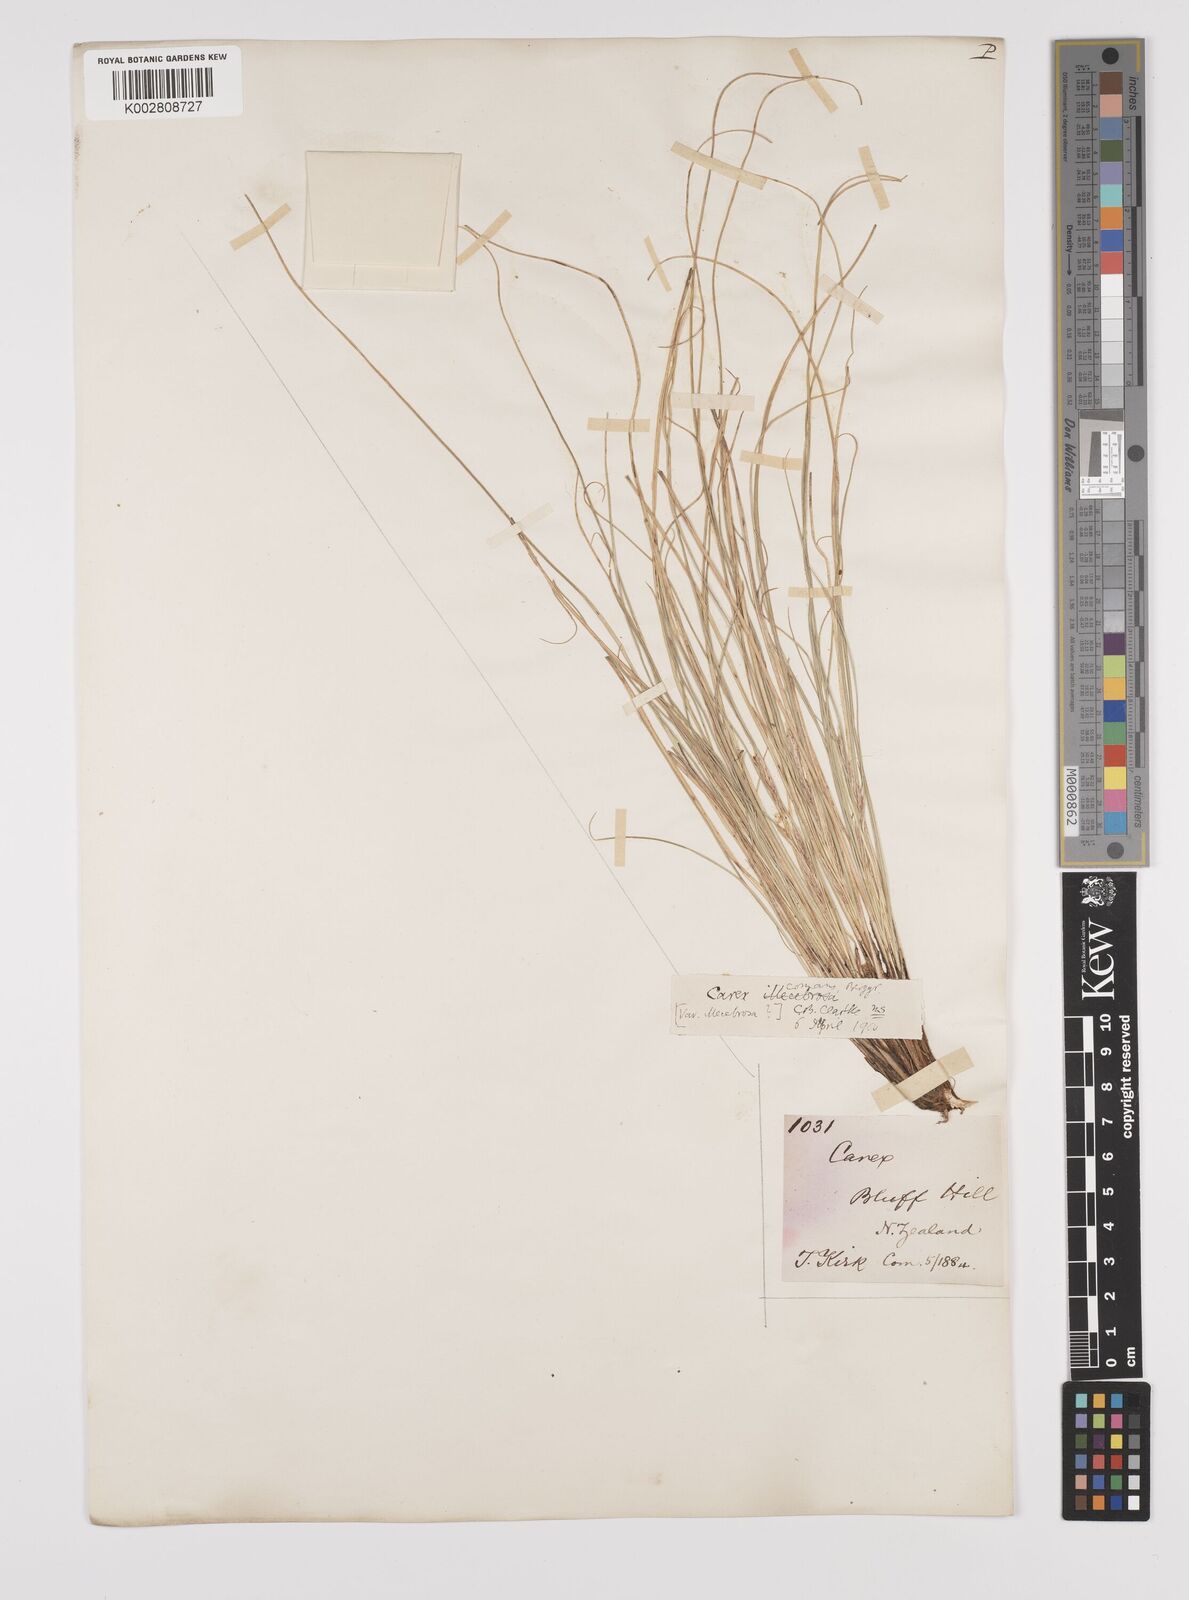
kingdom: Plantae
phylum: Tracheophyta
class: Liliopsida
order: Poales
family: Cyperaceae
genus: Carex
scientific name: Carex comans
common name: Longwood tussock
